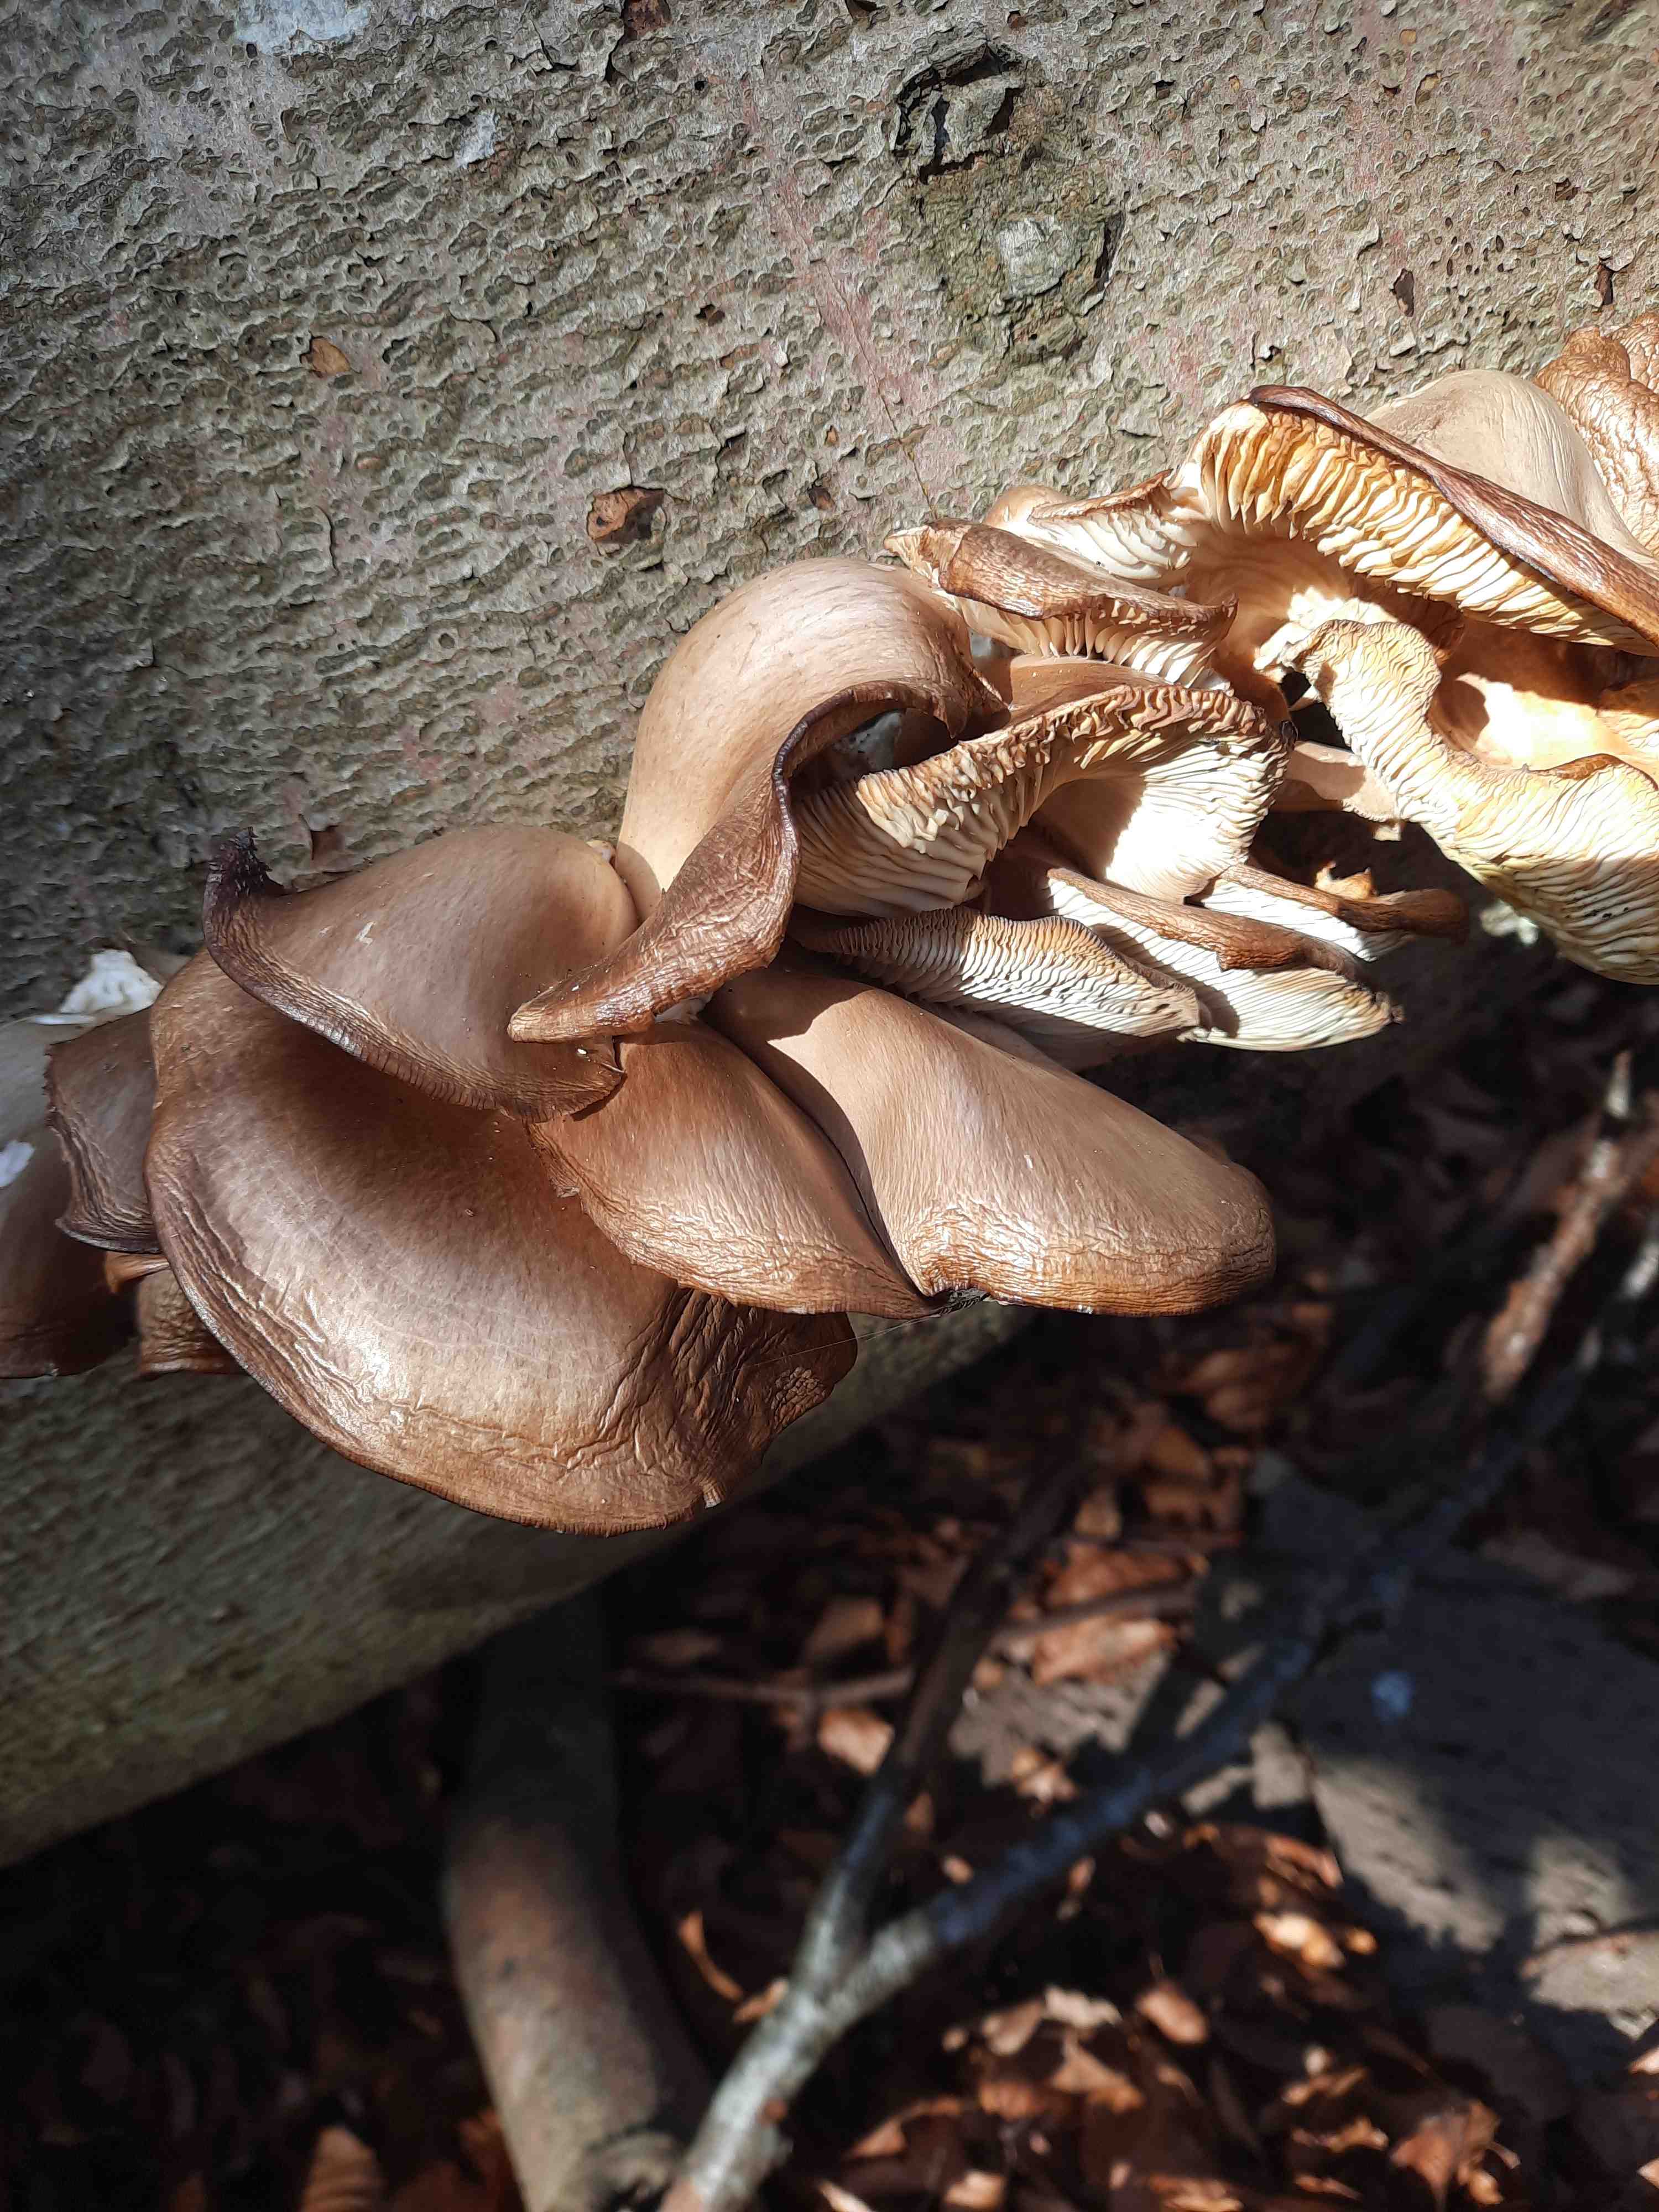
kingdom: Fungi
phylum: Basidiomycota
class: Agaricomycetes
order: Agaricales
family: Pleurotaceae
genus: Pleurotus
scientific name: Pleurotus ostreatus
